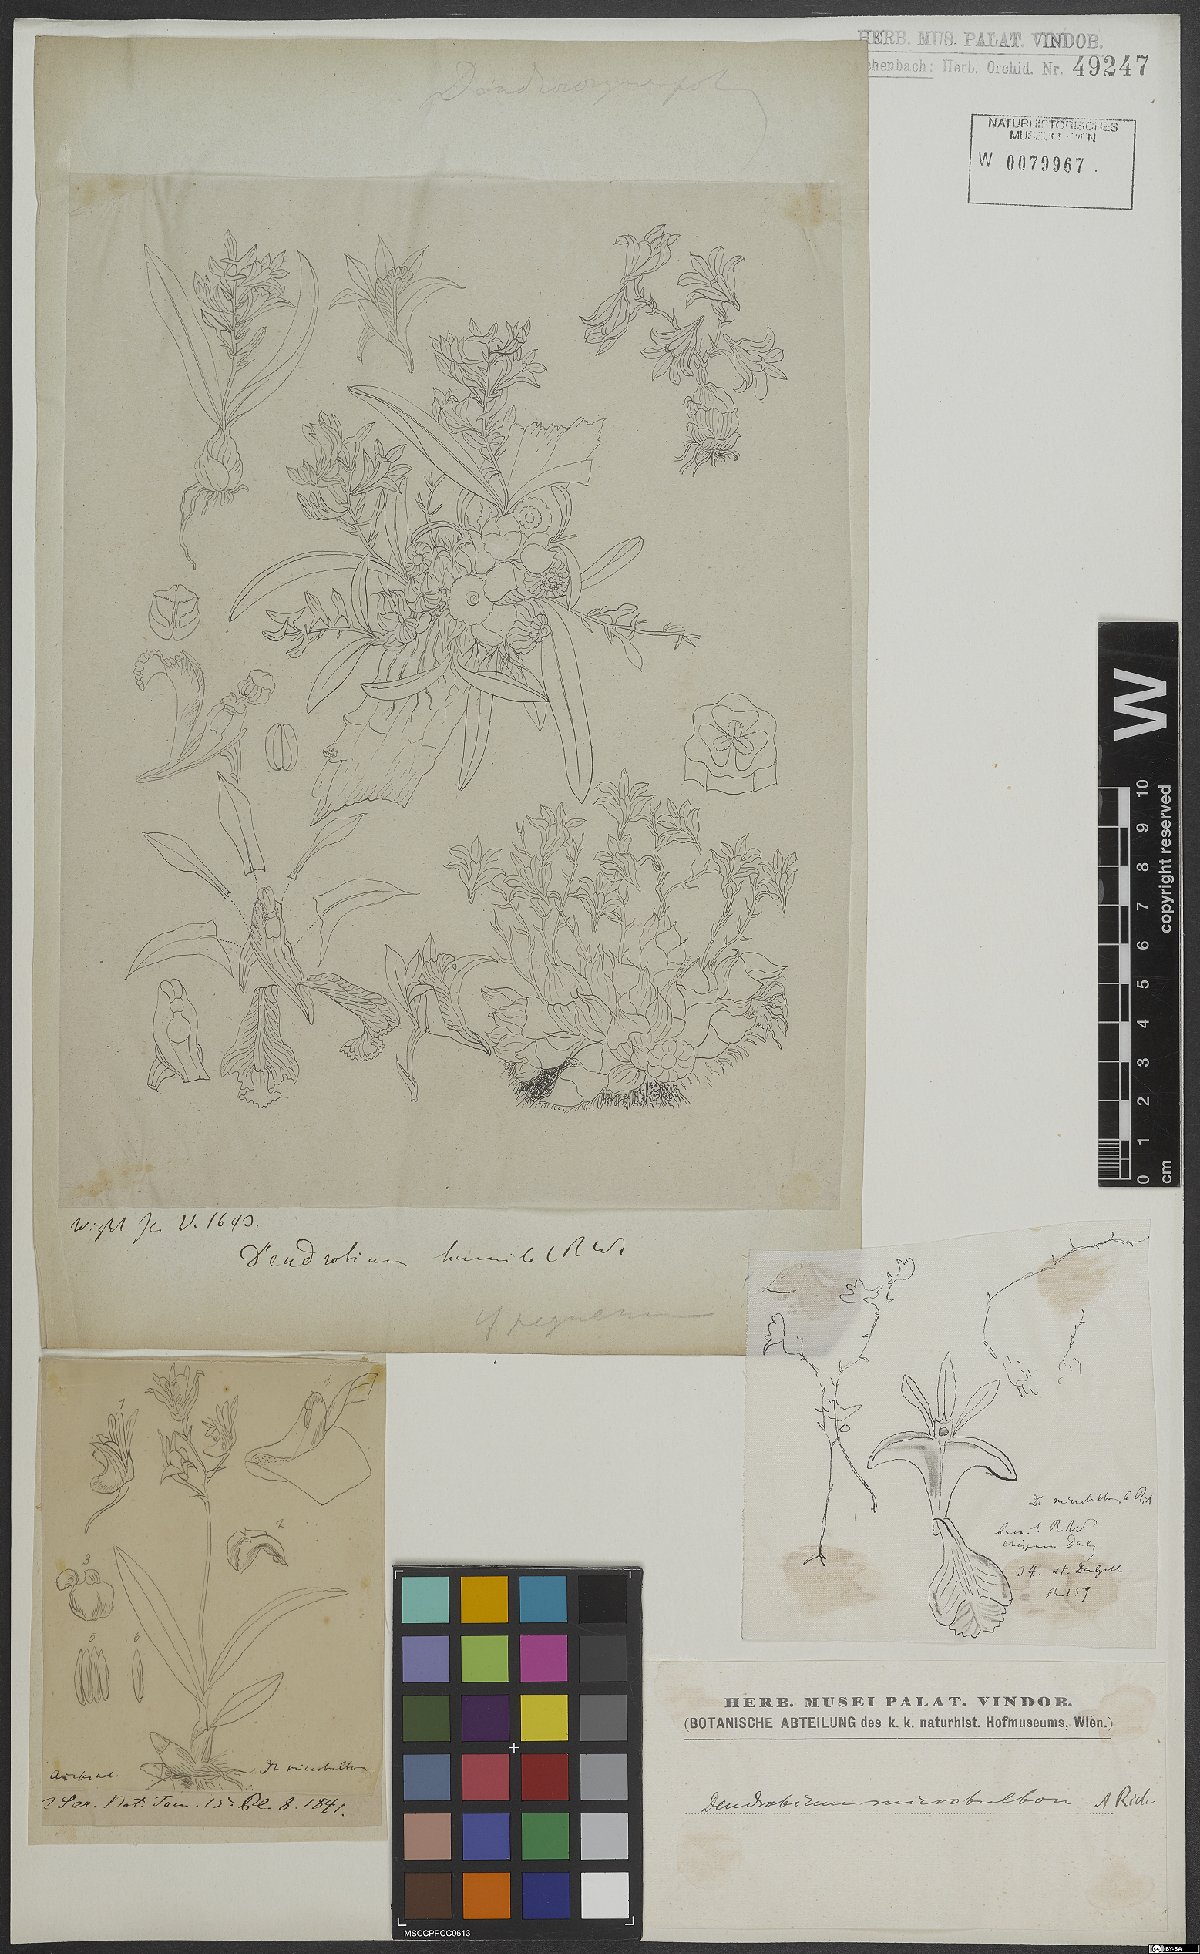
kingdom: Plantae
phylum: Tracheophyta
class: Liliopsida
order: Asparagales
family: Orchidaceae
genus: Dendrobium
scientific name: Dendrobium microbulbon
